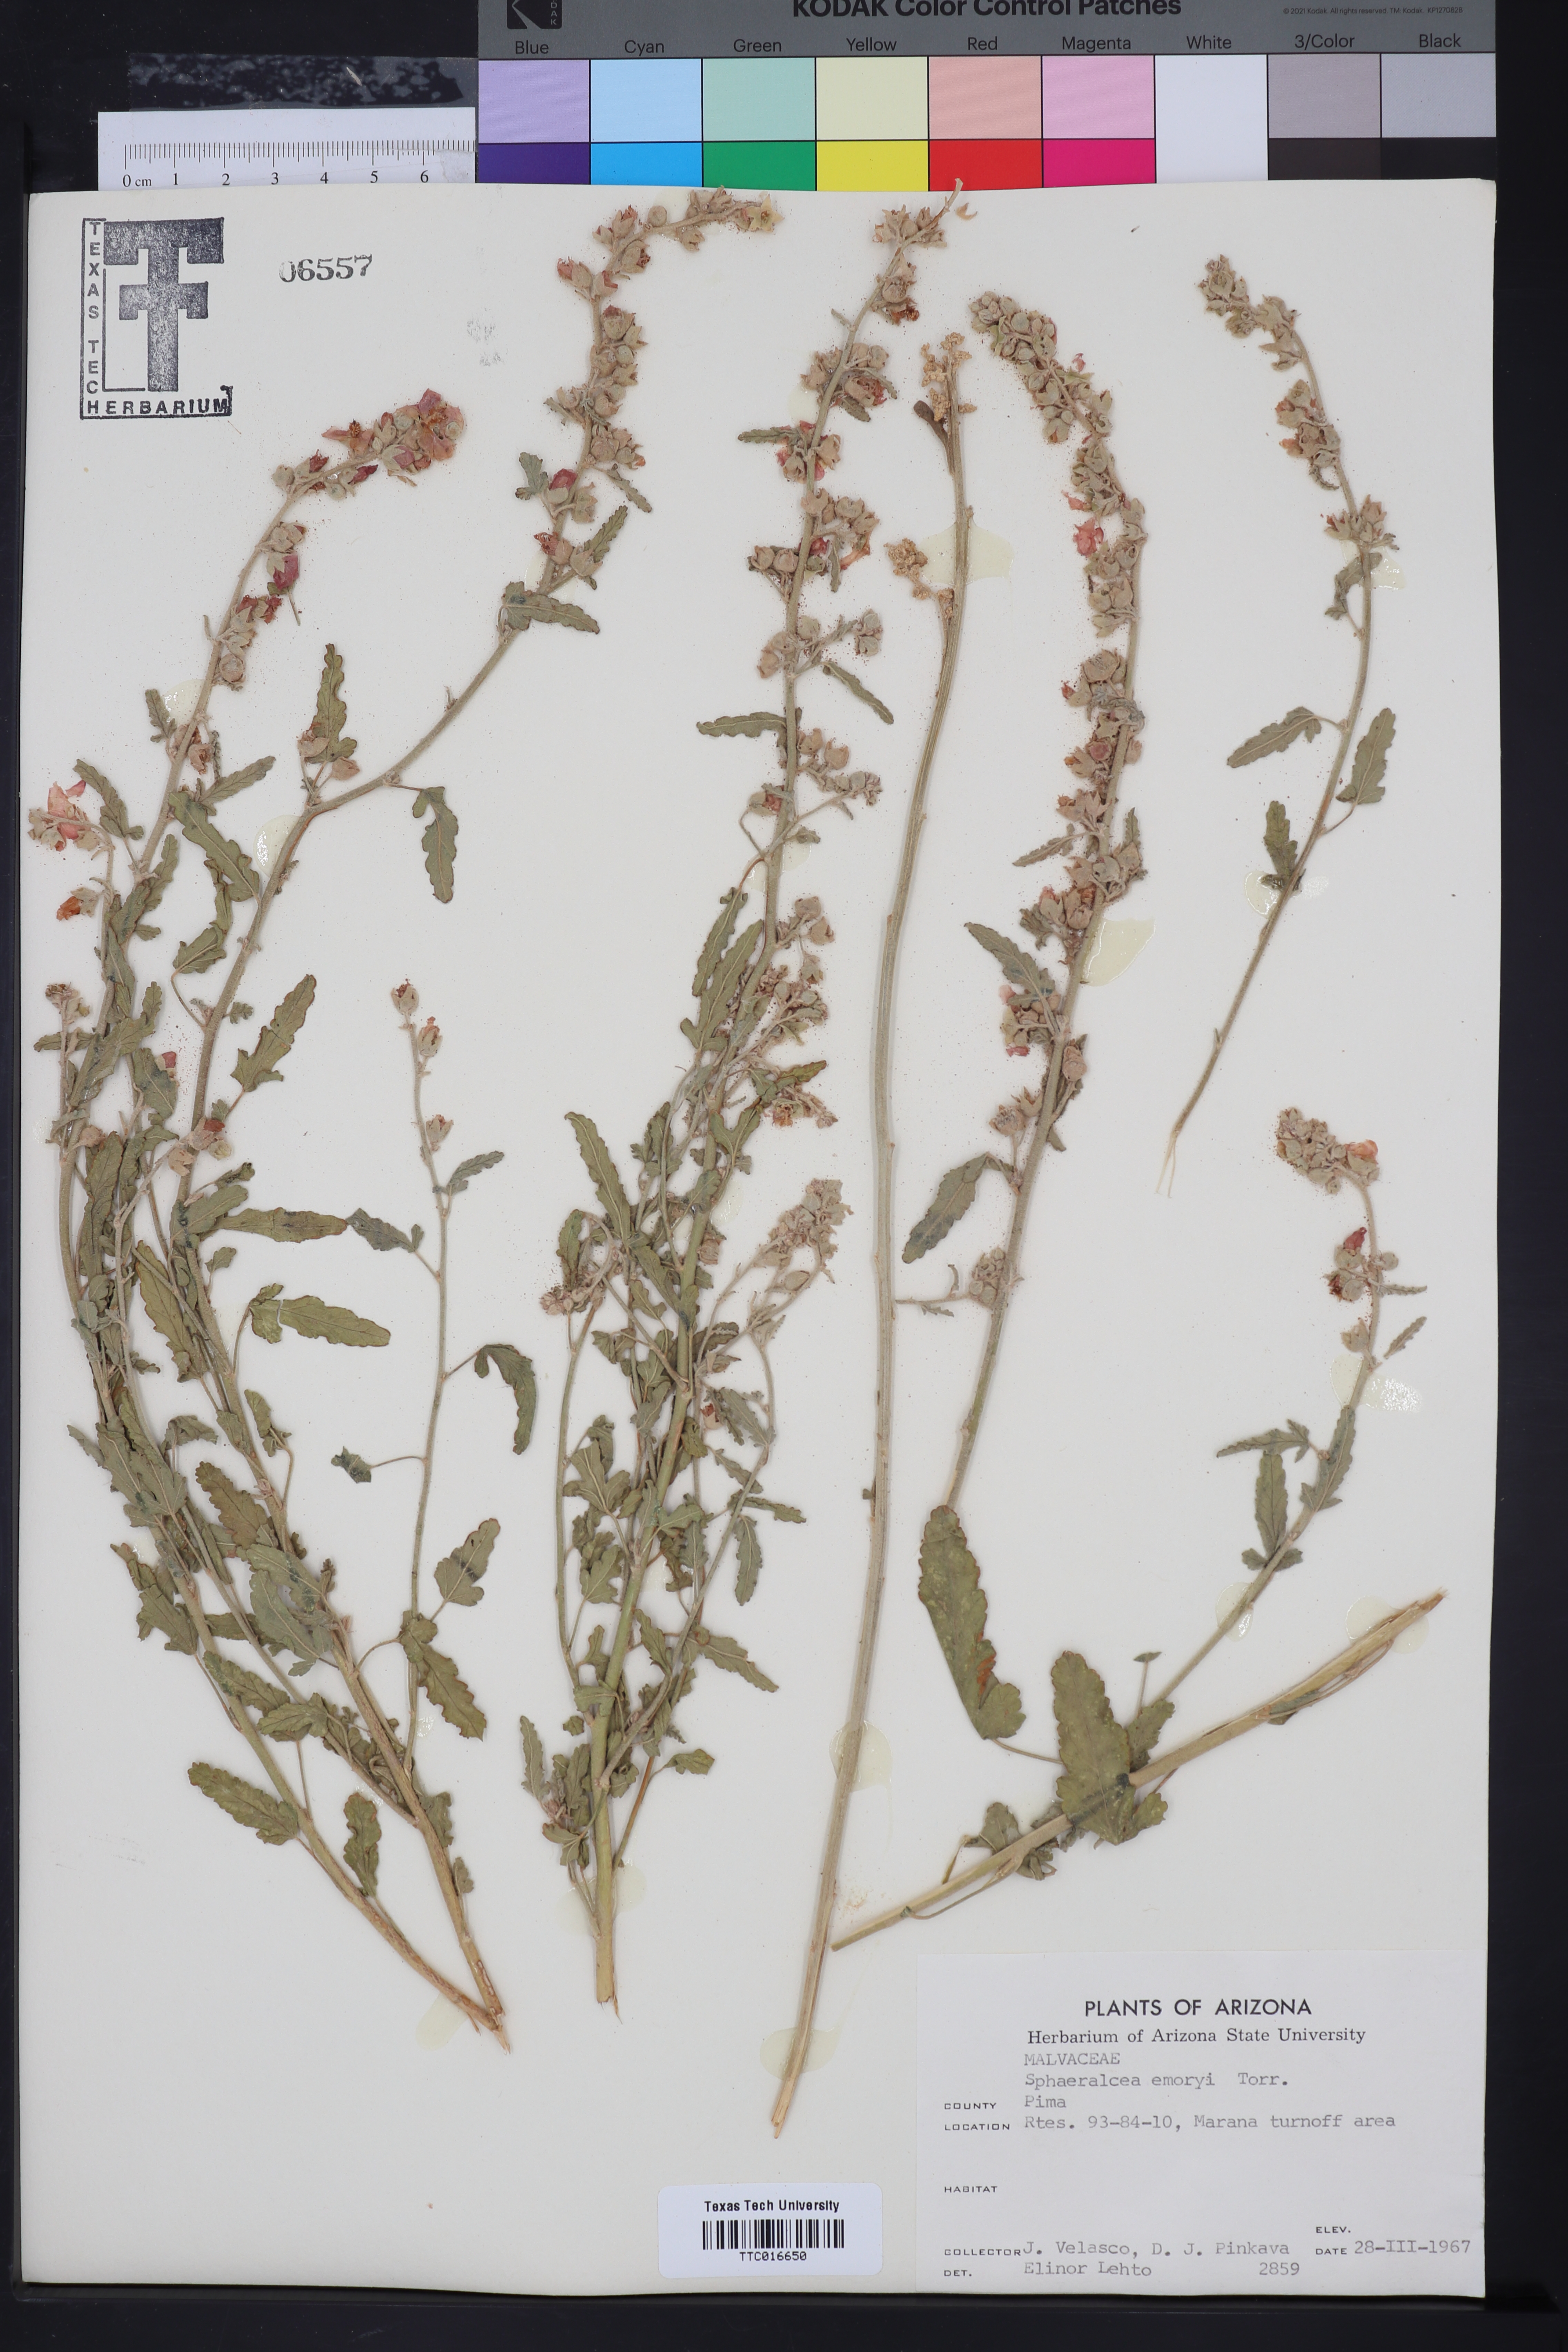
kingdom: Plantae
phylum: Tracheophyta
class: Magnoliopsida
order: Malvales
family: Malvaceae
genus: Sphaeralcea
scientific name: Sphaeralcea emoryi
